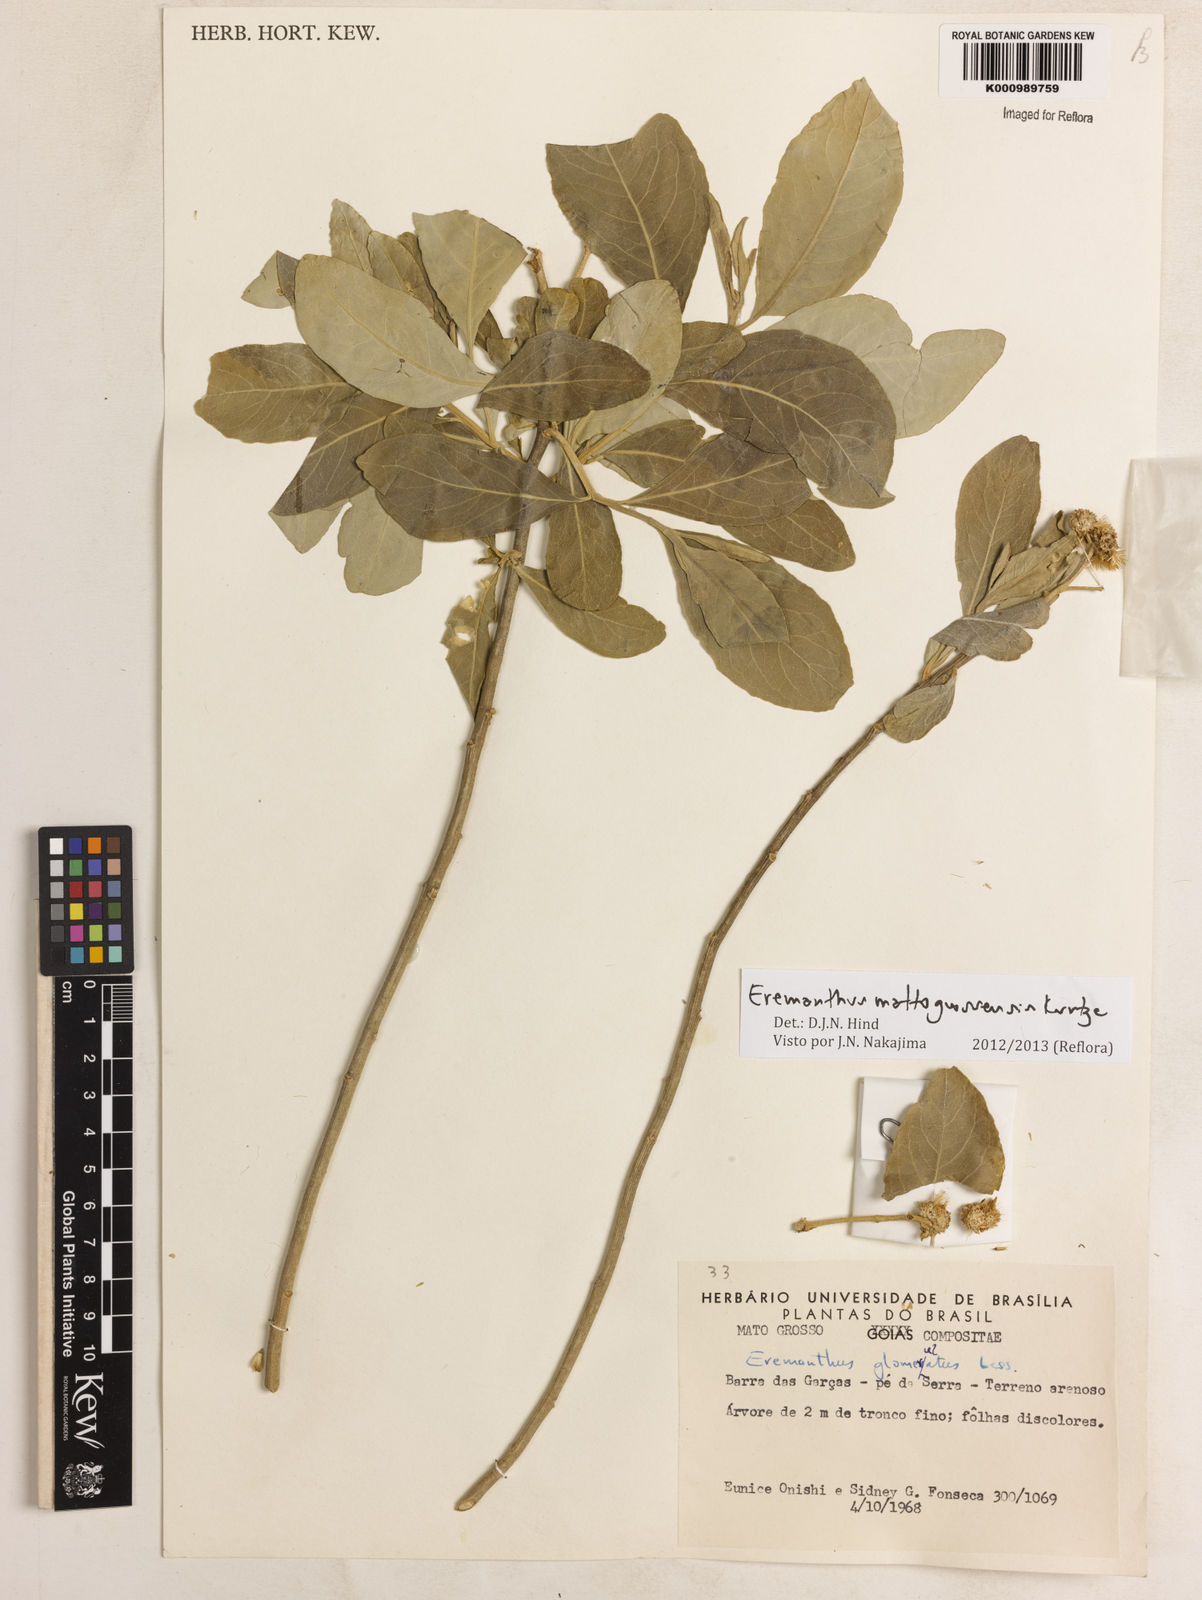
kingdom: Plantae
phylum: Tracheophyta
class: Magnoliopsida
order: Asterales
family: Asteraceae
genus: Eremanthus
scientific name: Eremanthus mattogrossensis
